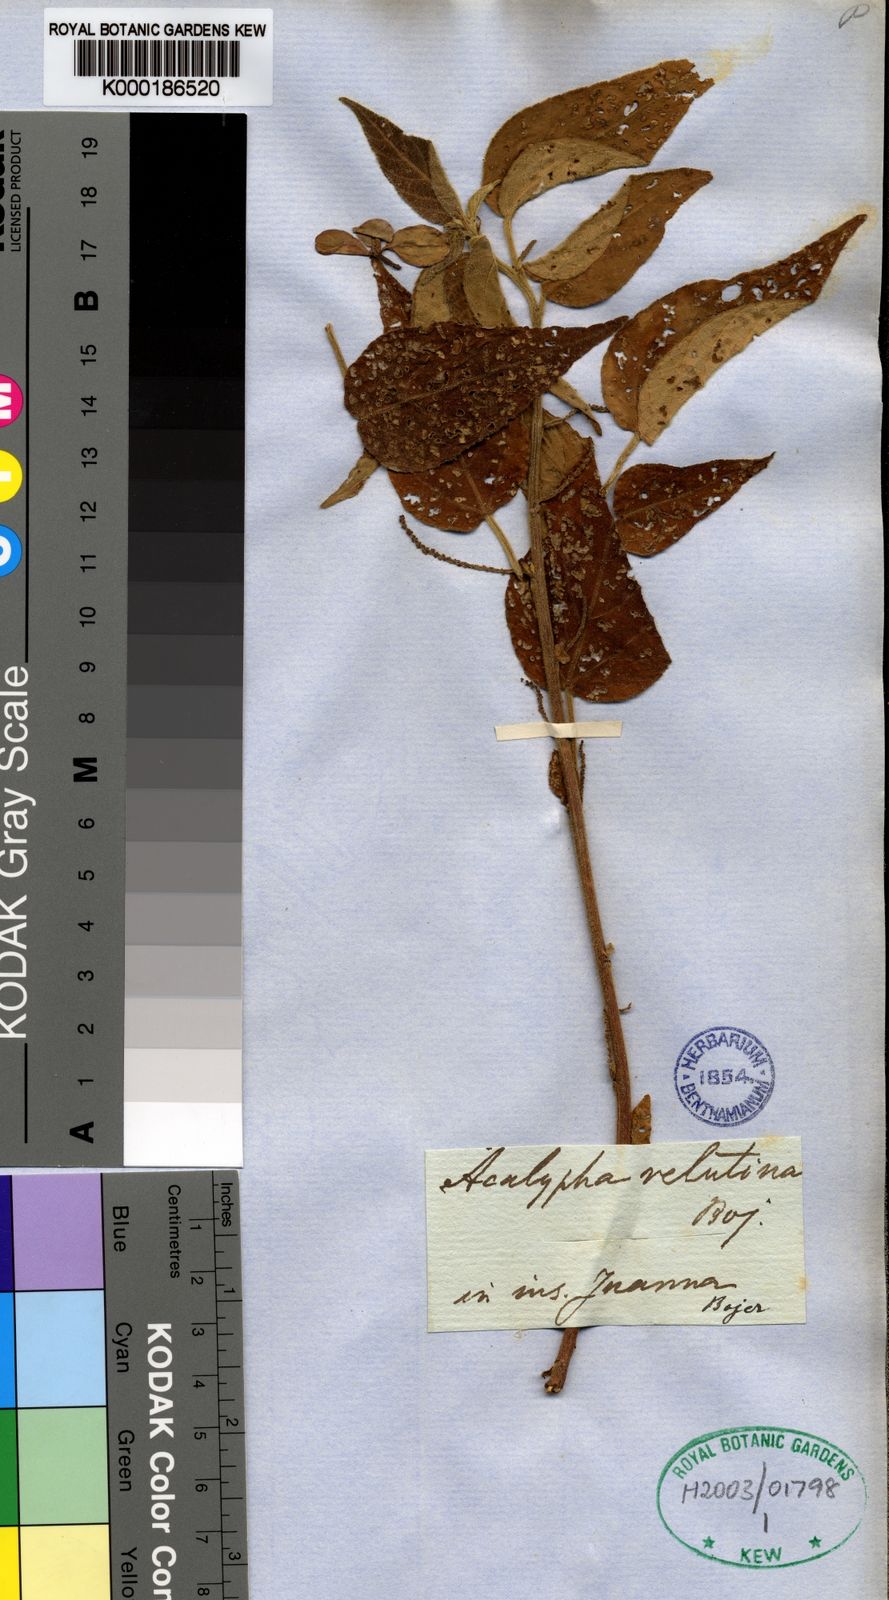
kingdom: Plantae
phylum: Tracheophyta
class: Magnoliopsida
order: Malpighiales
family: Euphorbiaceae
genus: Acalypha
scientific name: Acalypha
